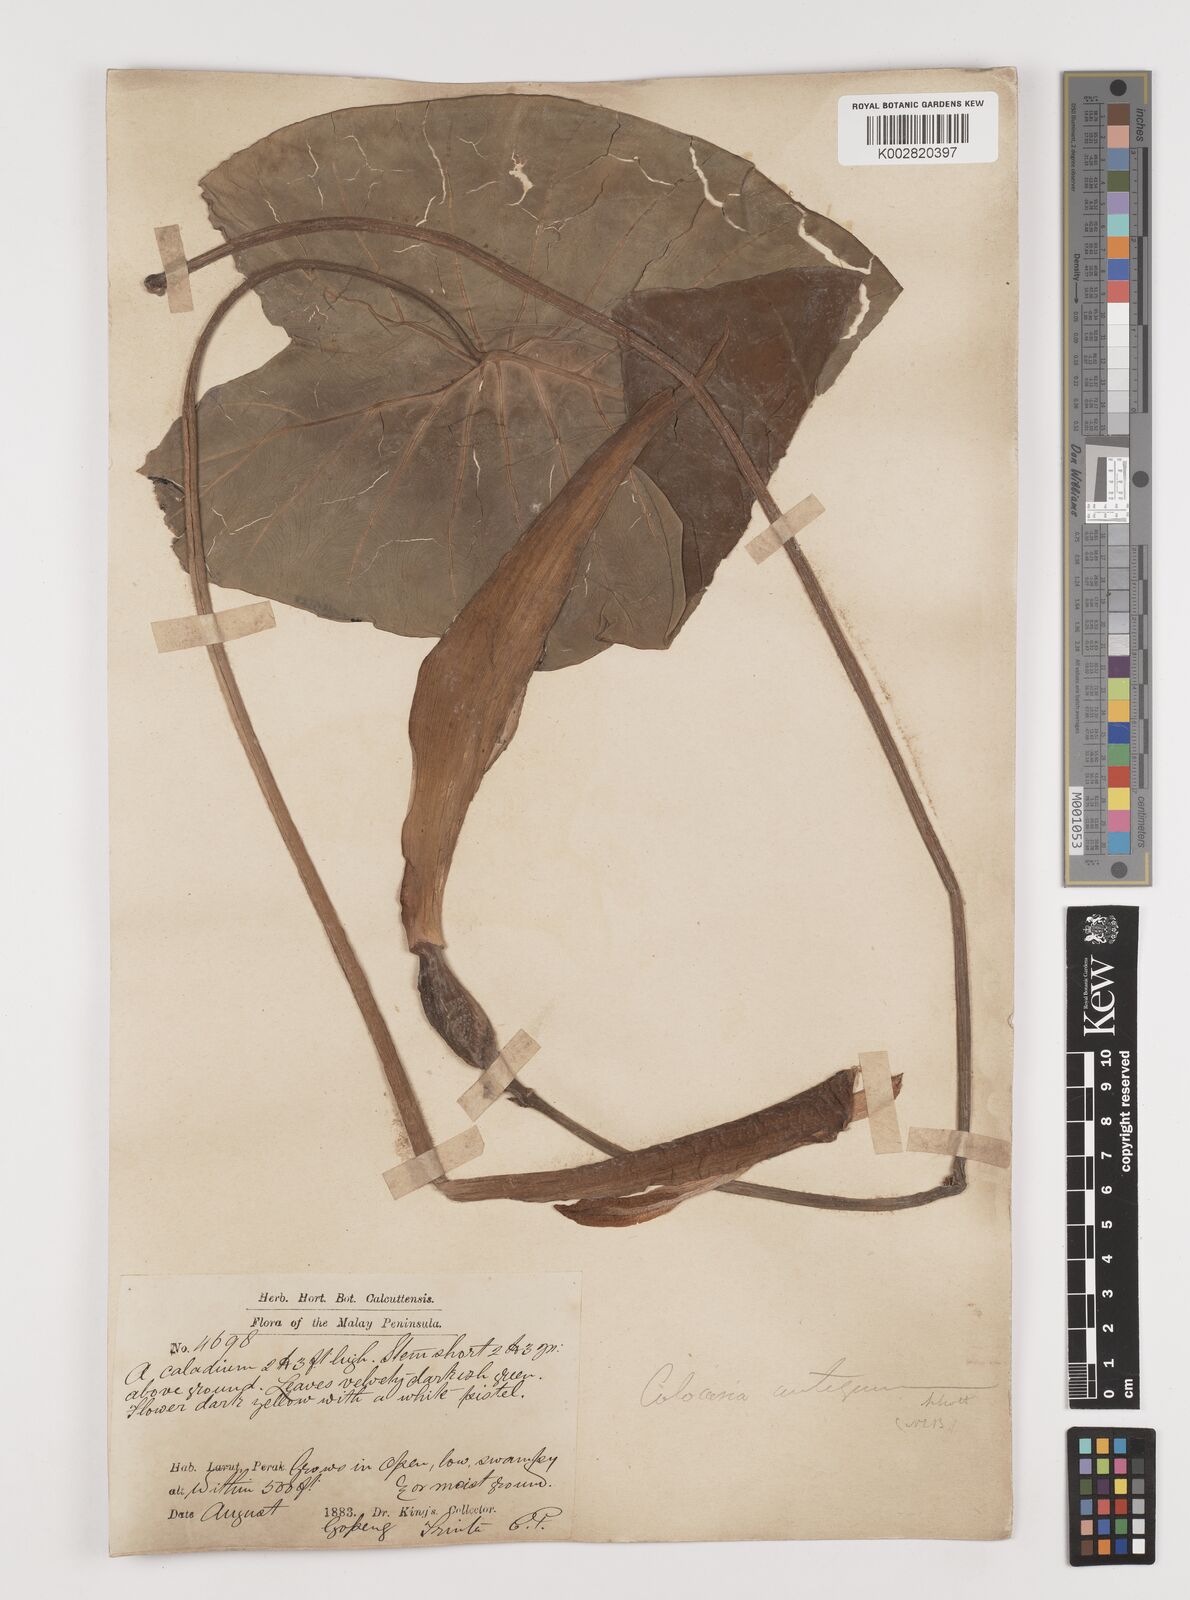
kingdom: Plantae
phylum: Tracheophyta
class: Liliopsida
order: Alismatales
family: Araceae
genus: Colocasia
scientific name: Colocasia esculenta
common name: Taro
